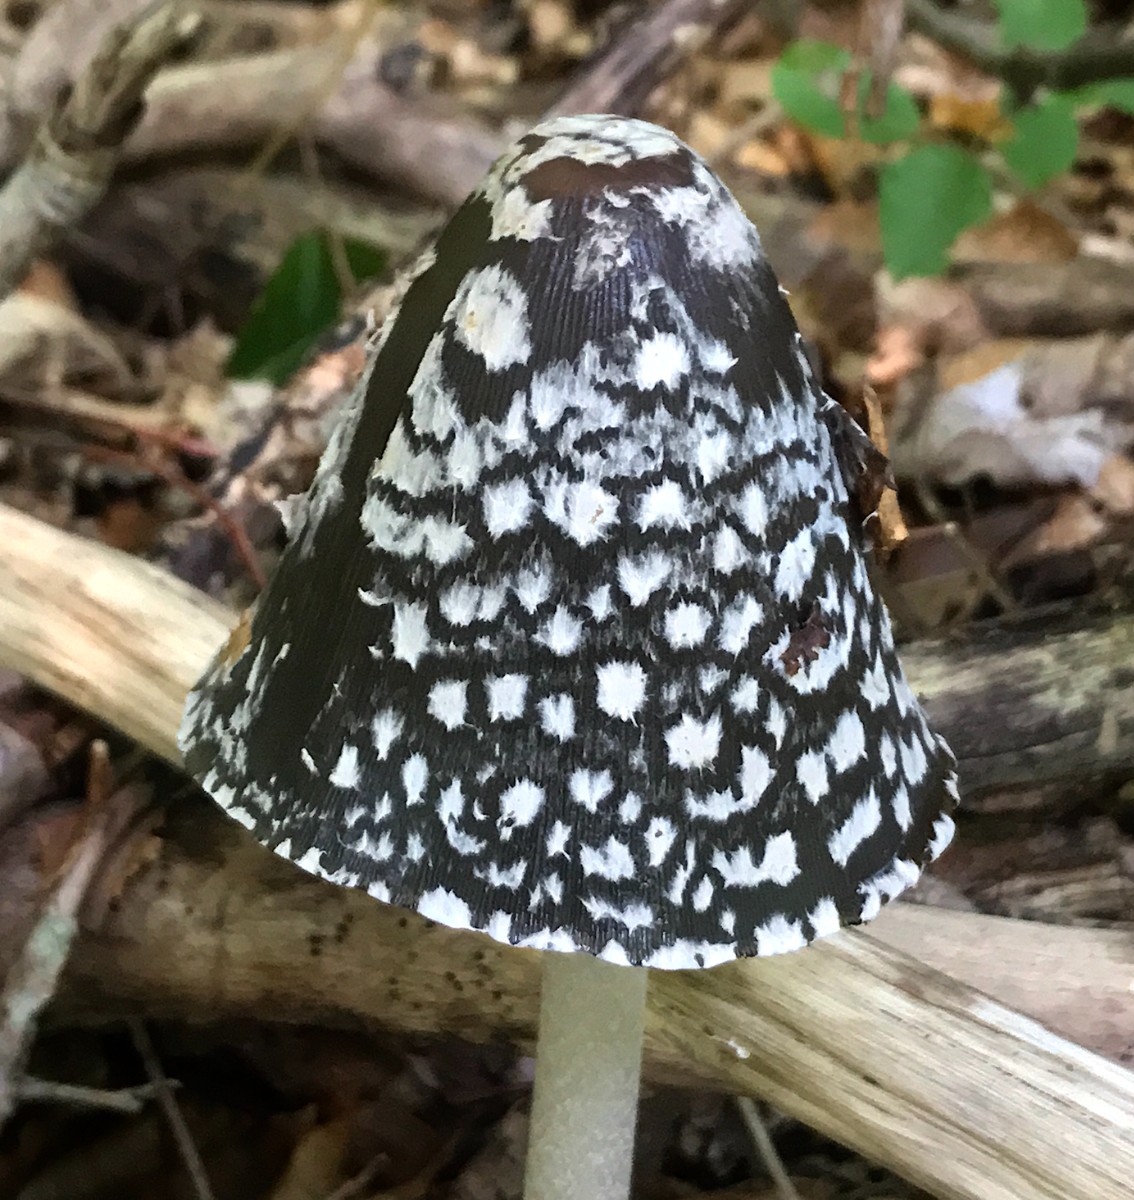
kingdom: Fungi
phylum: Basidiomycota
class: Agaricomycetes
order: Agaricales
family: Psathyrellaceae
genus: Coprinopsis
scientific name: Coprinopsis picacea
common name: skade-blækhat
